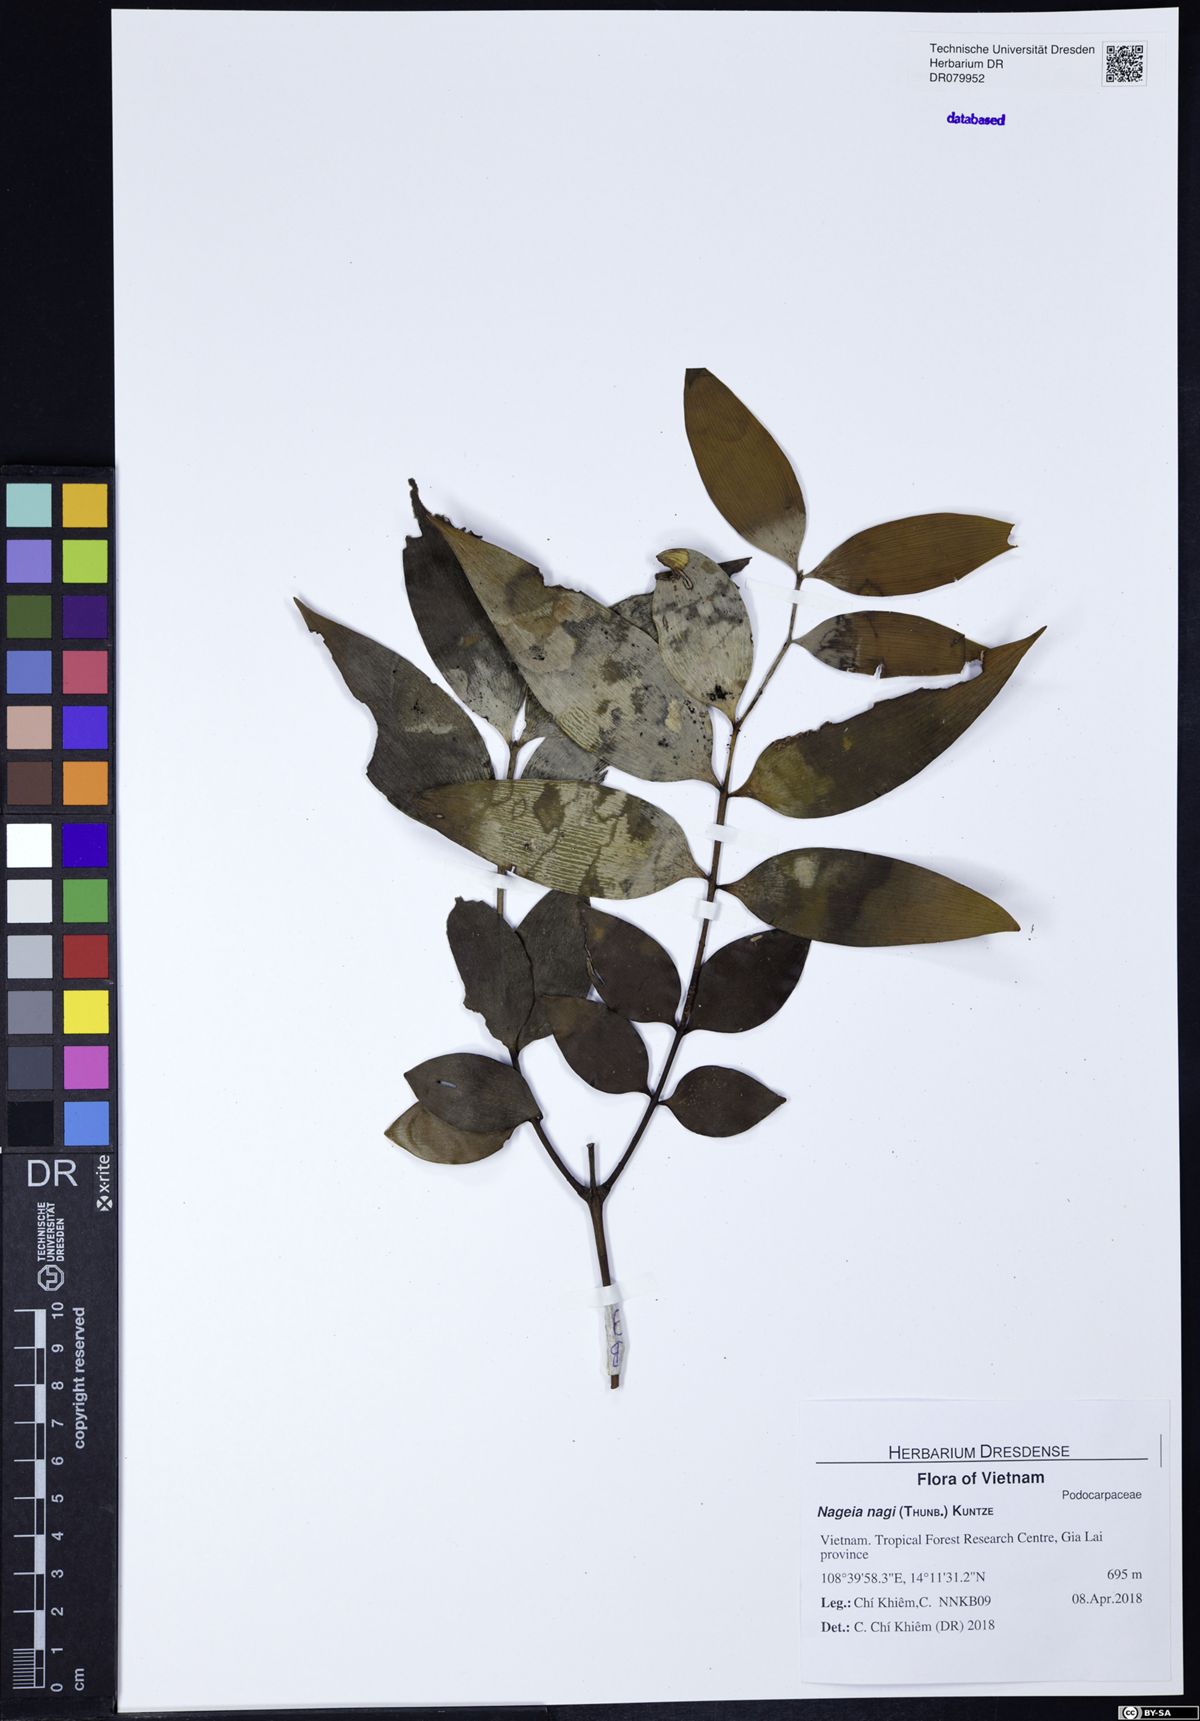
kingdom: Plantae
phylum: Tracheophyta
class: Pinopsida
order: Pinales
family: Podocarpaceae
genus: Nageia
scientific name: Nageia nagi
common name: Kaphal
